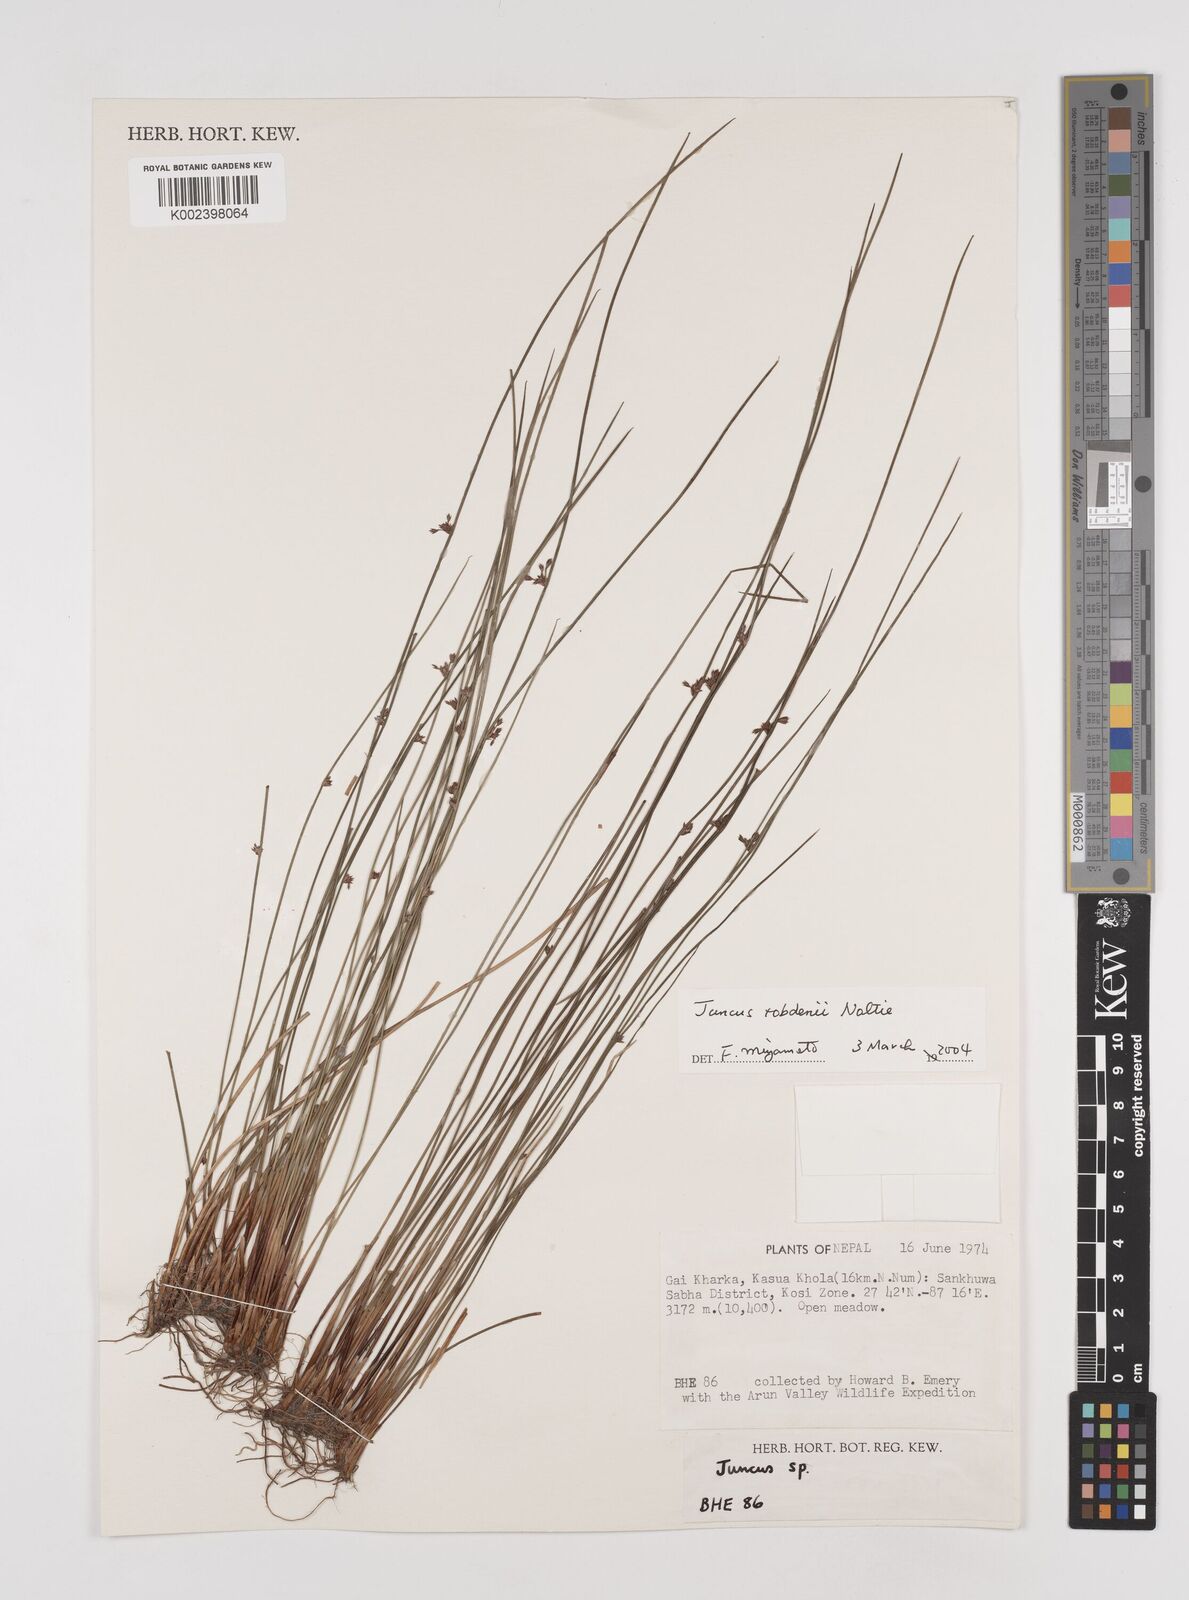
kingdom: Plantae
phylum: Tracheophyta
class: Liliopsida
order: Poales
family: Juncaceae
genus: Juncus
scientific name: Juncus tobdeniorum
